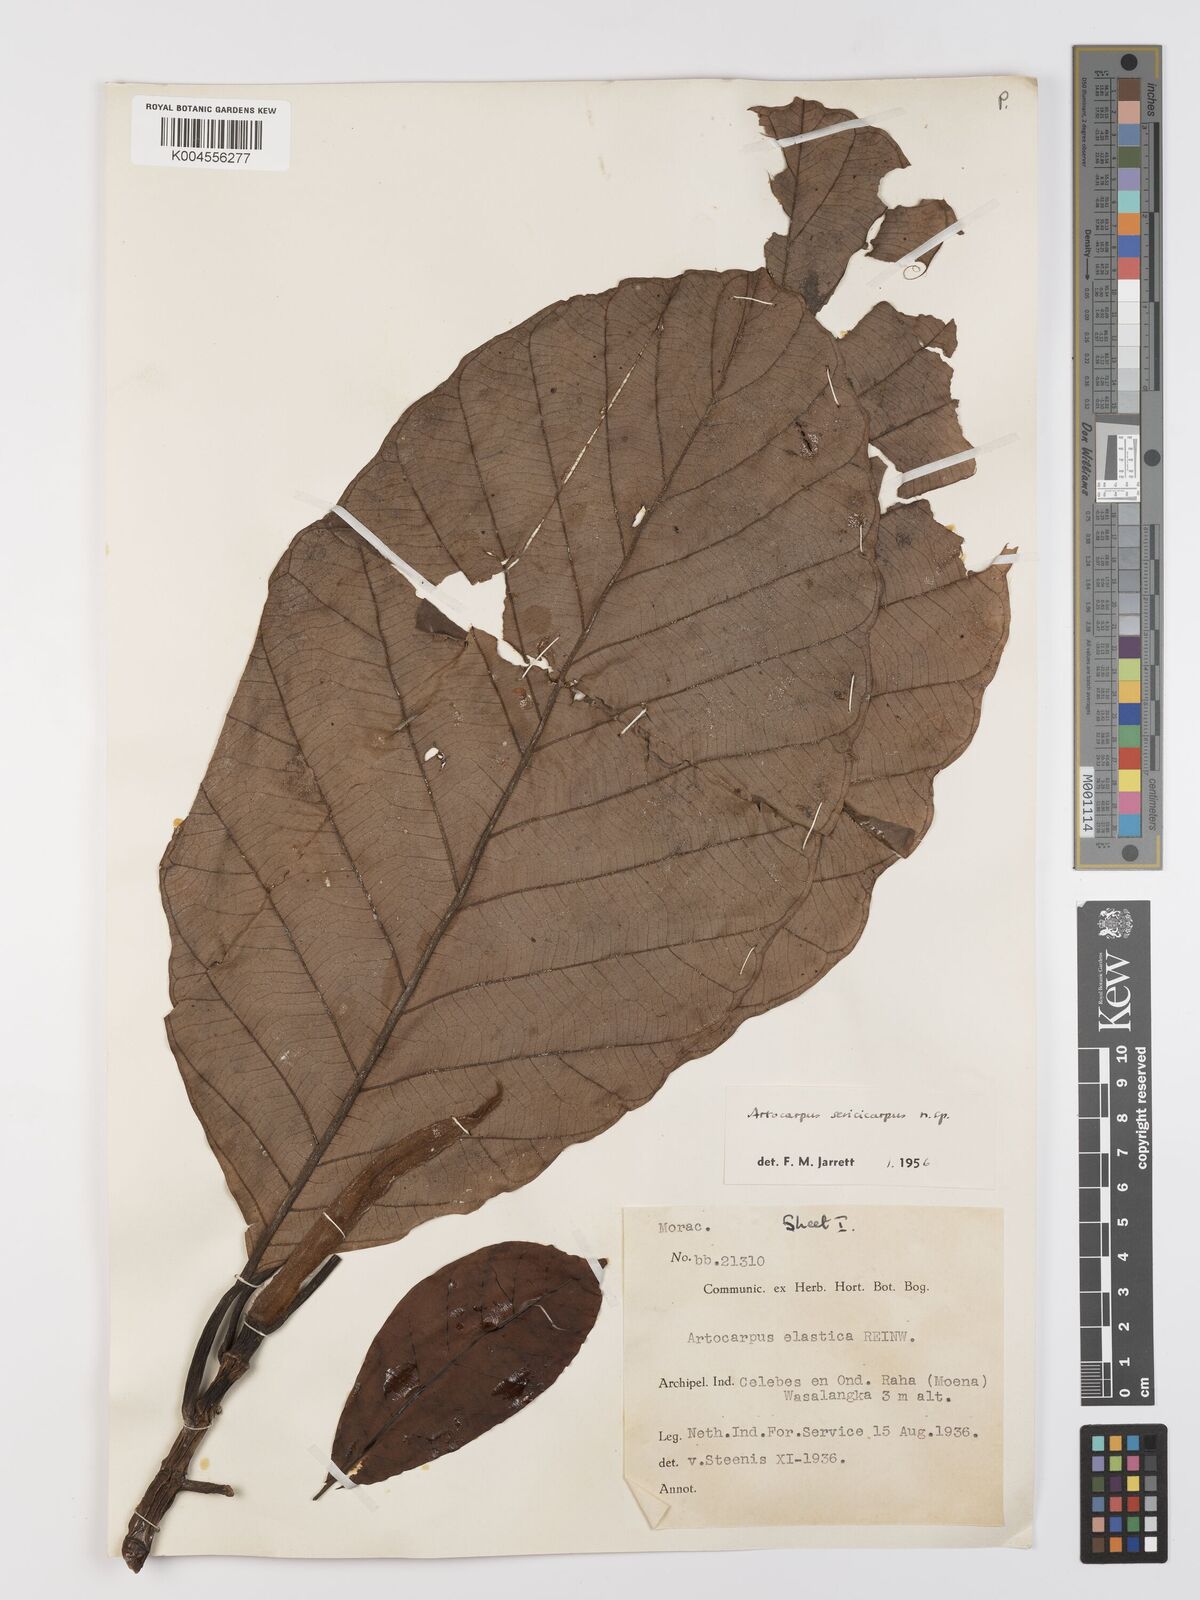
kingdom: Plantae
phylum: Tracheophyta
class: Magnoliopsida
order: Rosales
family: Moraceae
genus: Artocarpus
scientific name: Artocarpus sericicarpus
